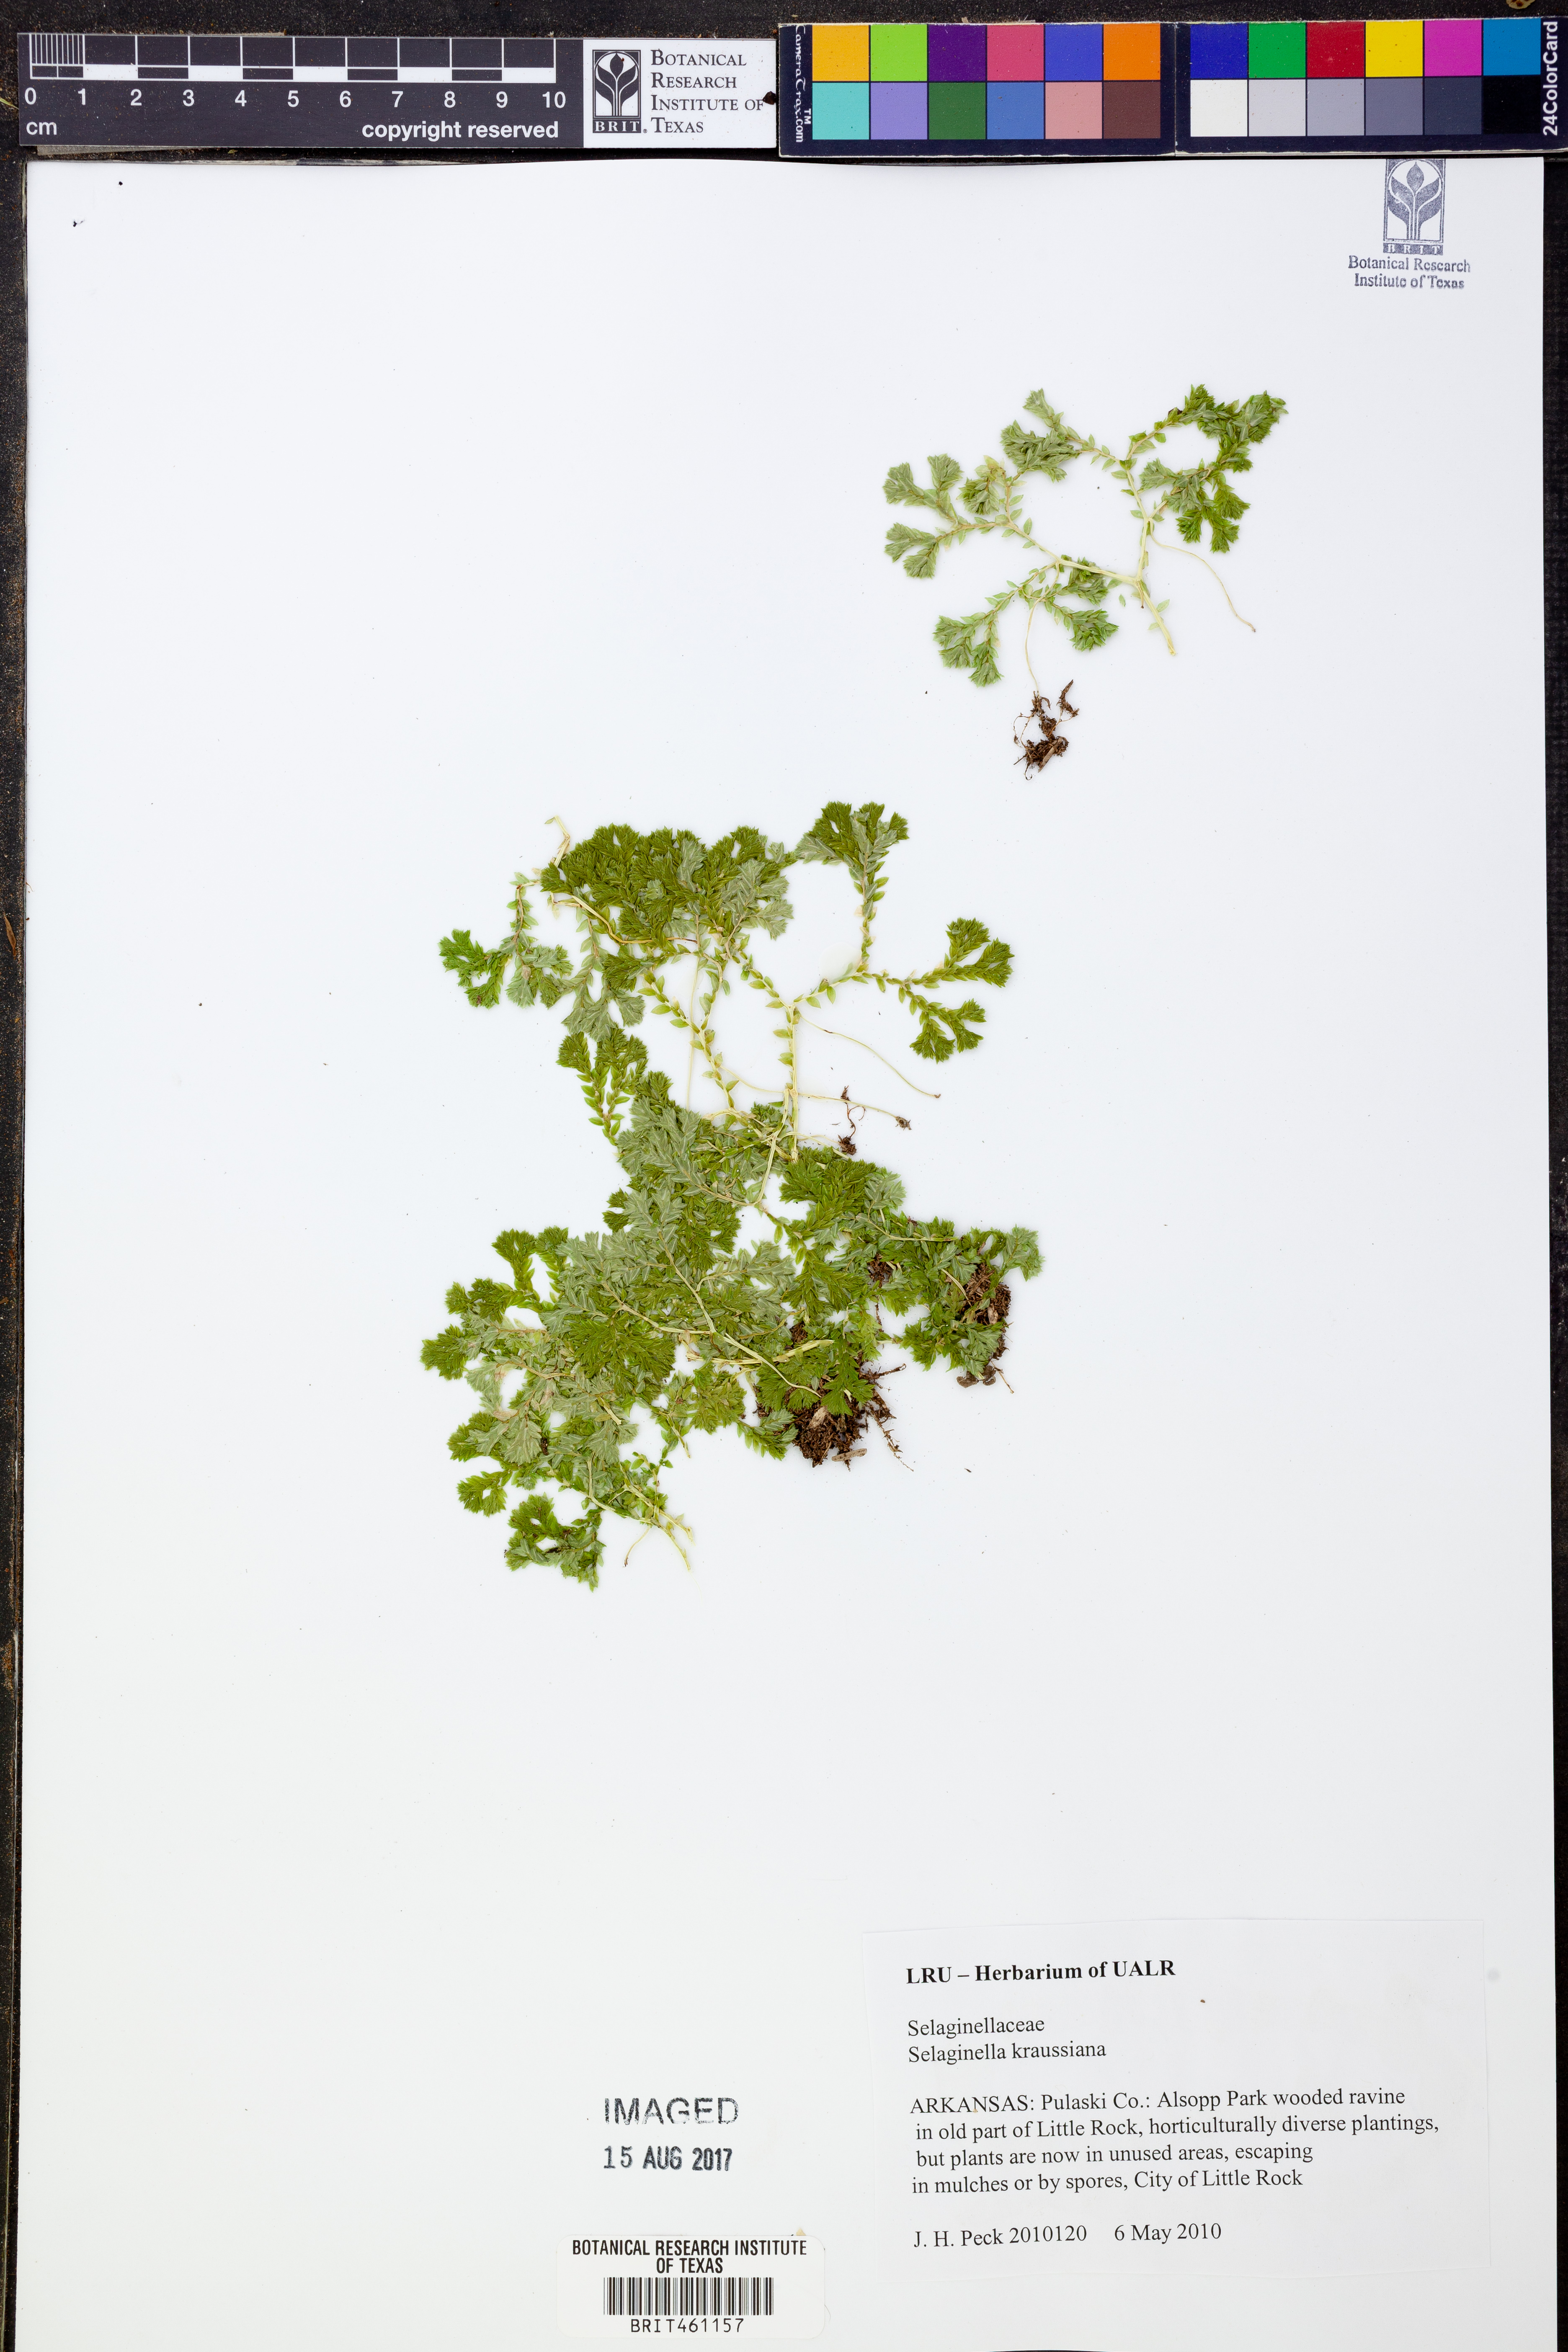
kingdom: Plantae
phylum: Tracheophyta
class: Lycopodiopsida
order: Selaginellales
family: Selaginellaceae
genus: Selaginella
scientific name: Selaginella kraussiana
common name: Krauss' spikemoss
